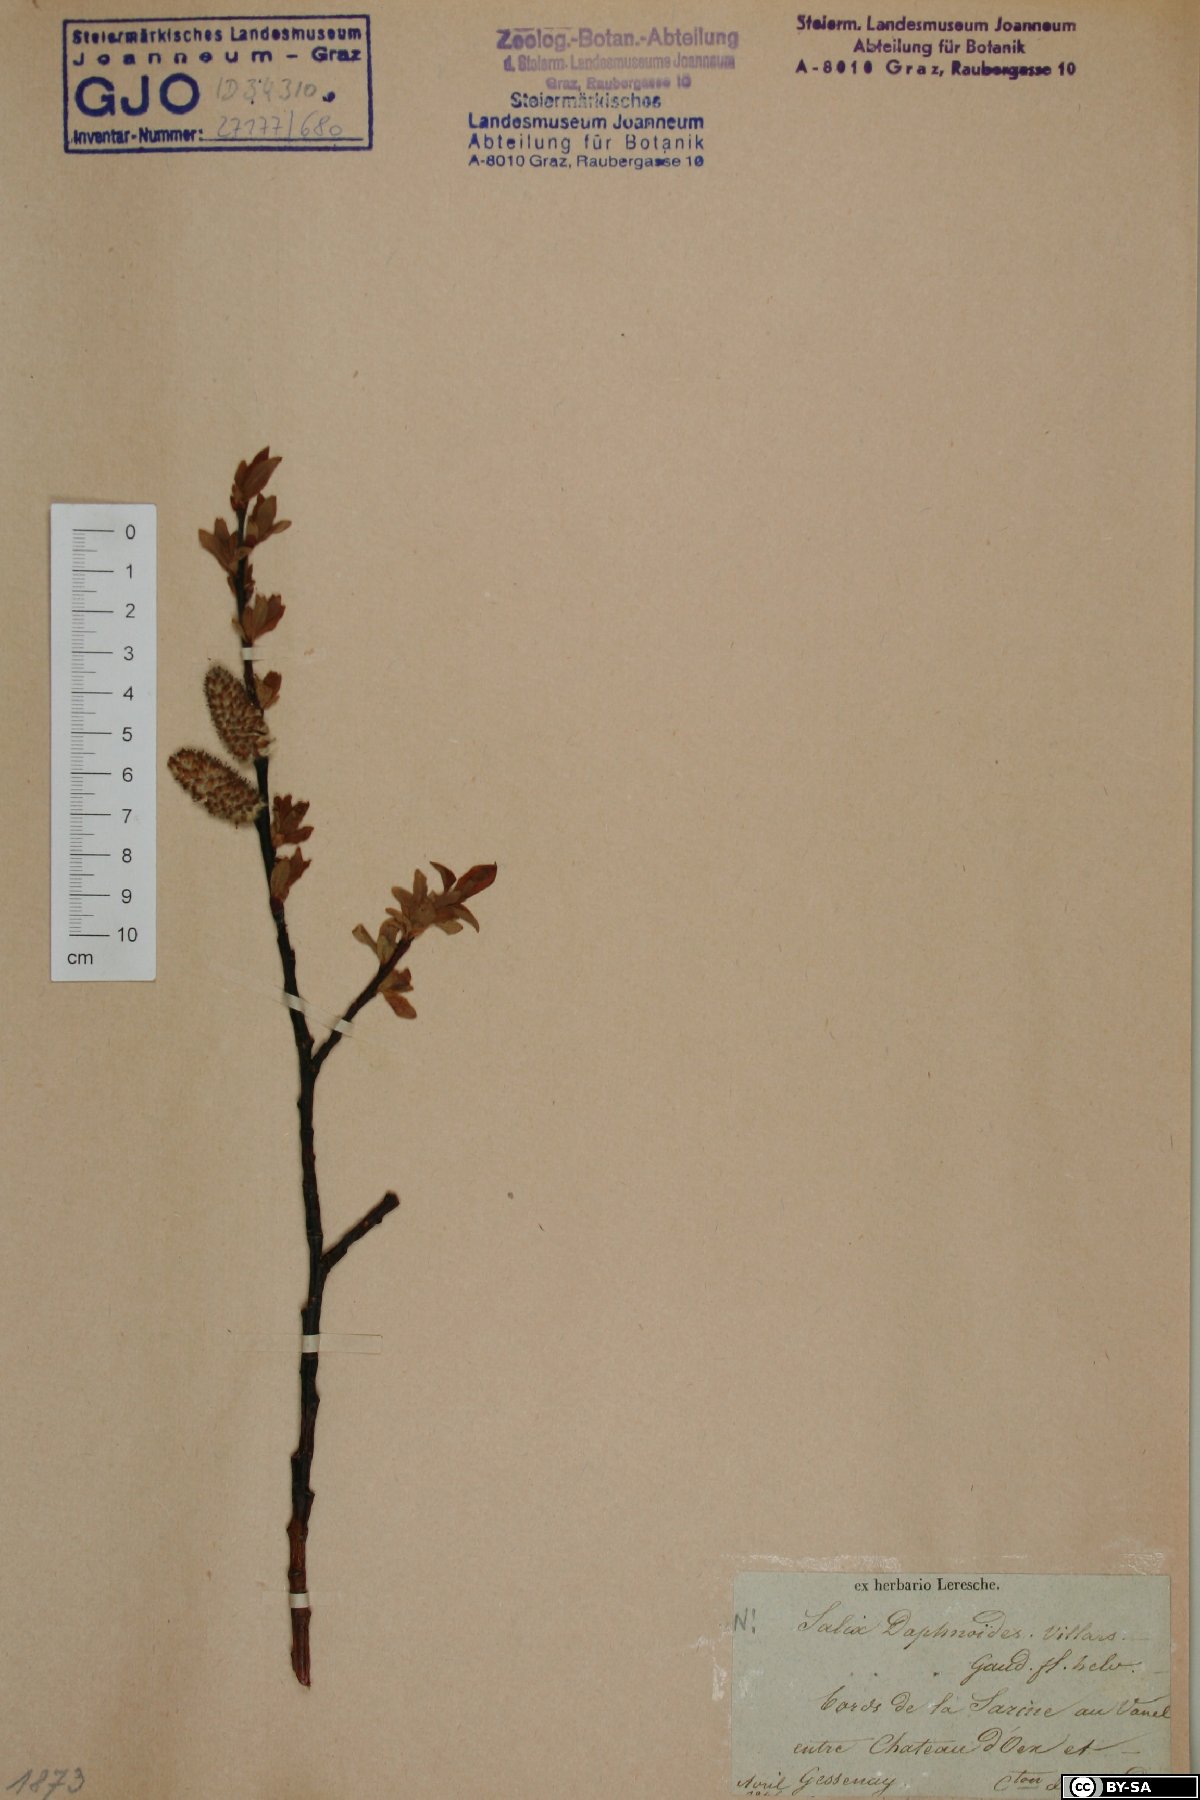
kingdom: Plantae
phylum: Tracheophyta
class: Magnoliopsida
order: Malpighiales
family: Salicaceae
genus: Salix
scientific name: Salix daphnoides
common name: European violet-willow
